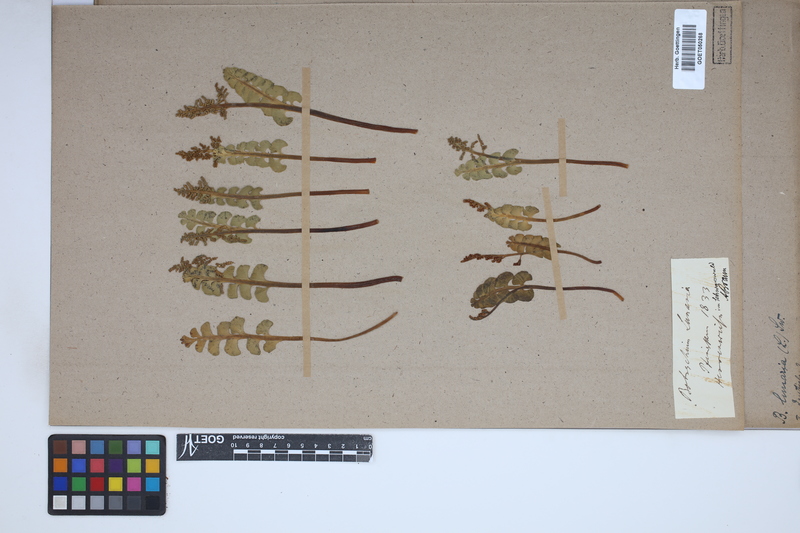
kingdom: Plantae
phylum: Tracheophyta
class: Polypodiopsida
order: Ophioglossales
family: Ophioglossaceae
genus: Botrychium
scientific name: Botrychium lunaria
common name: Moonwort
